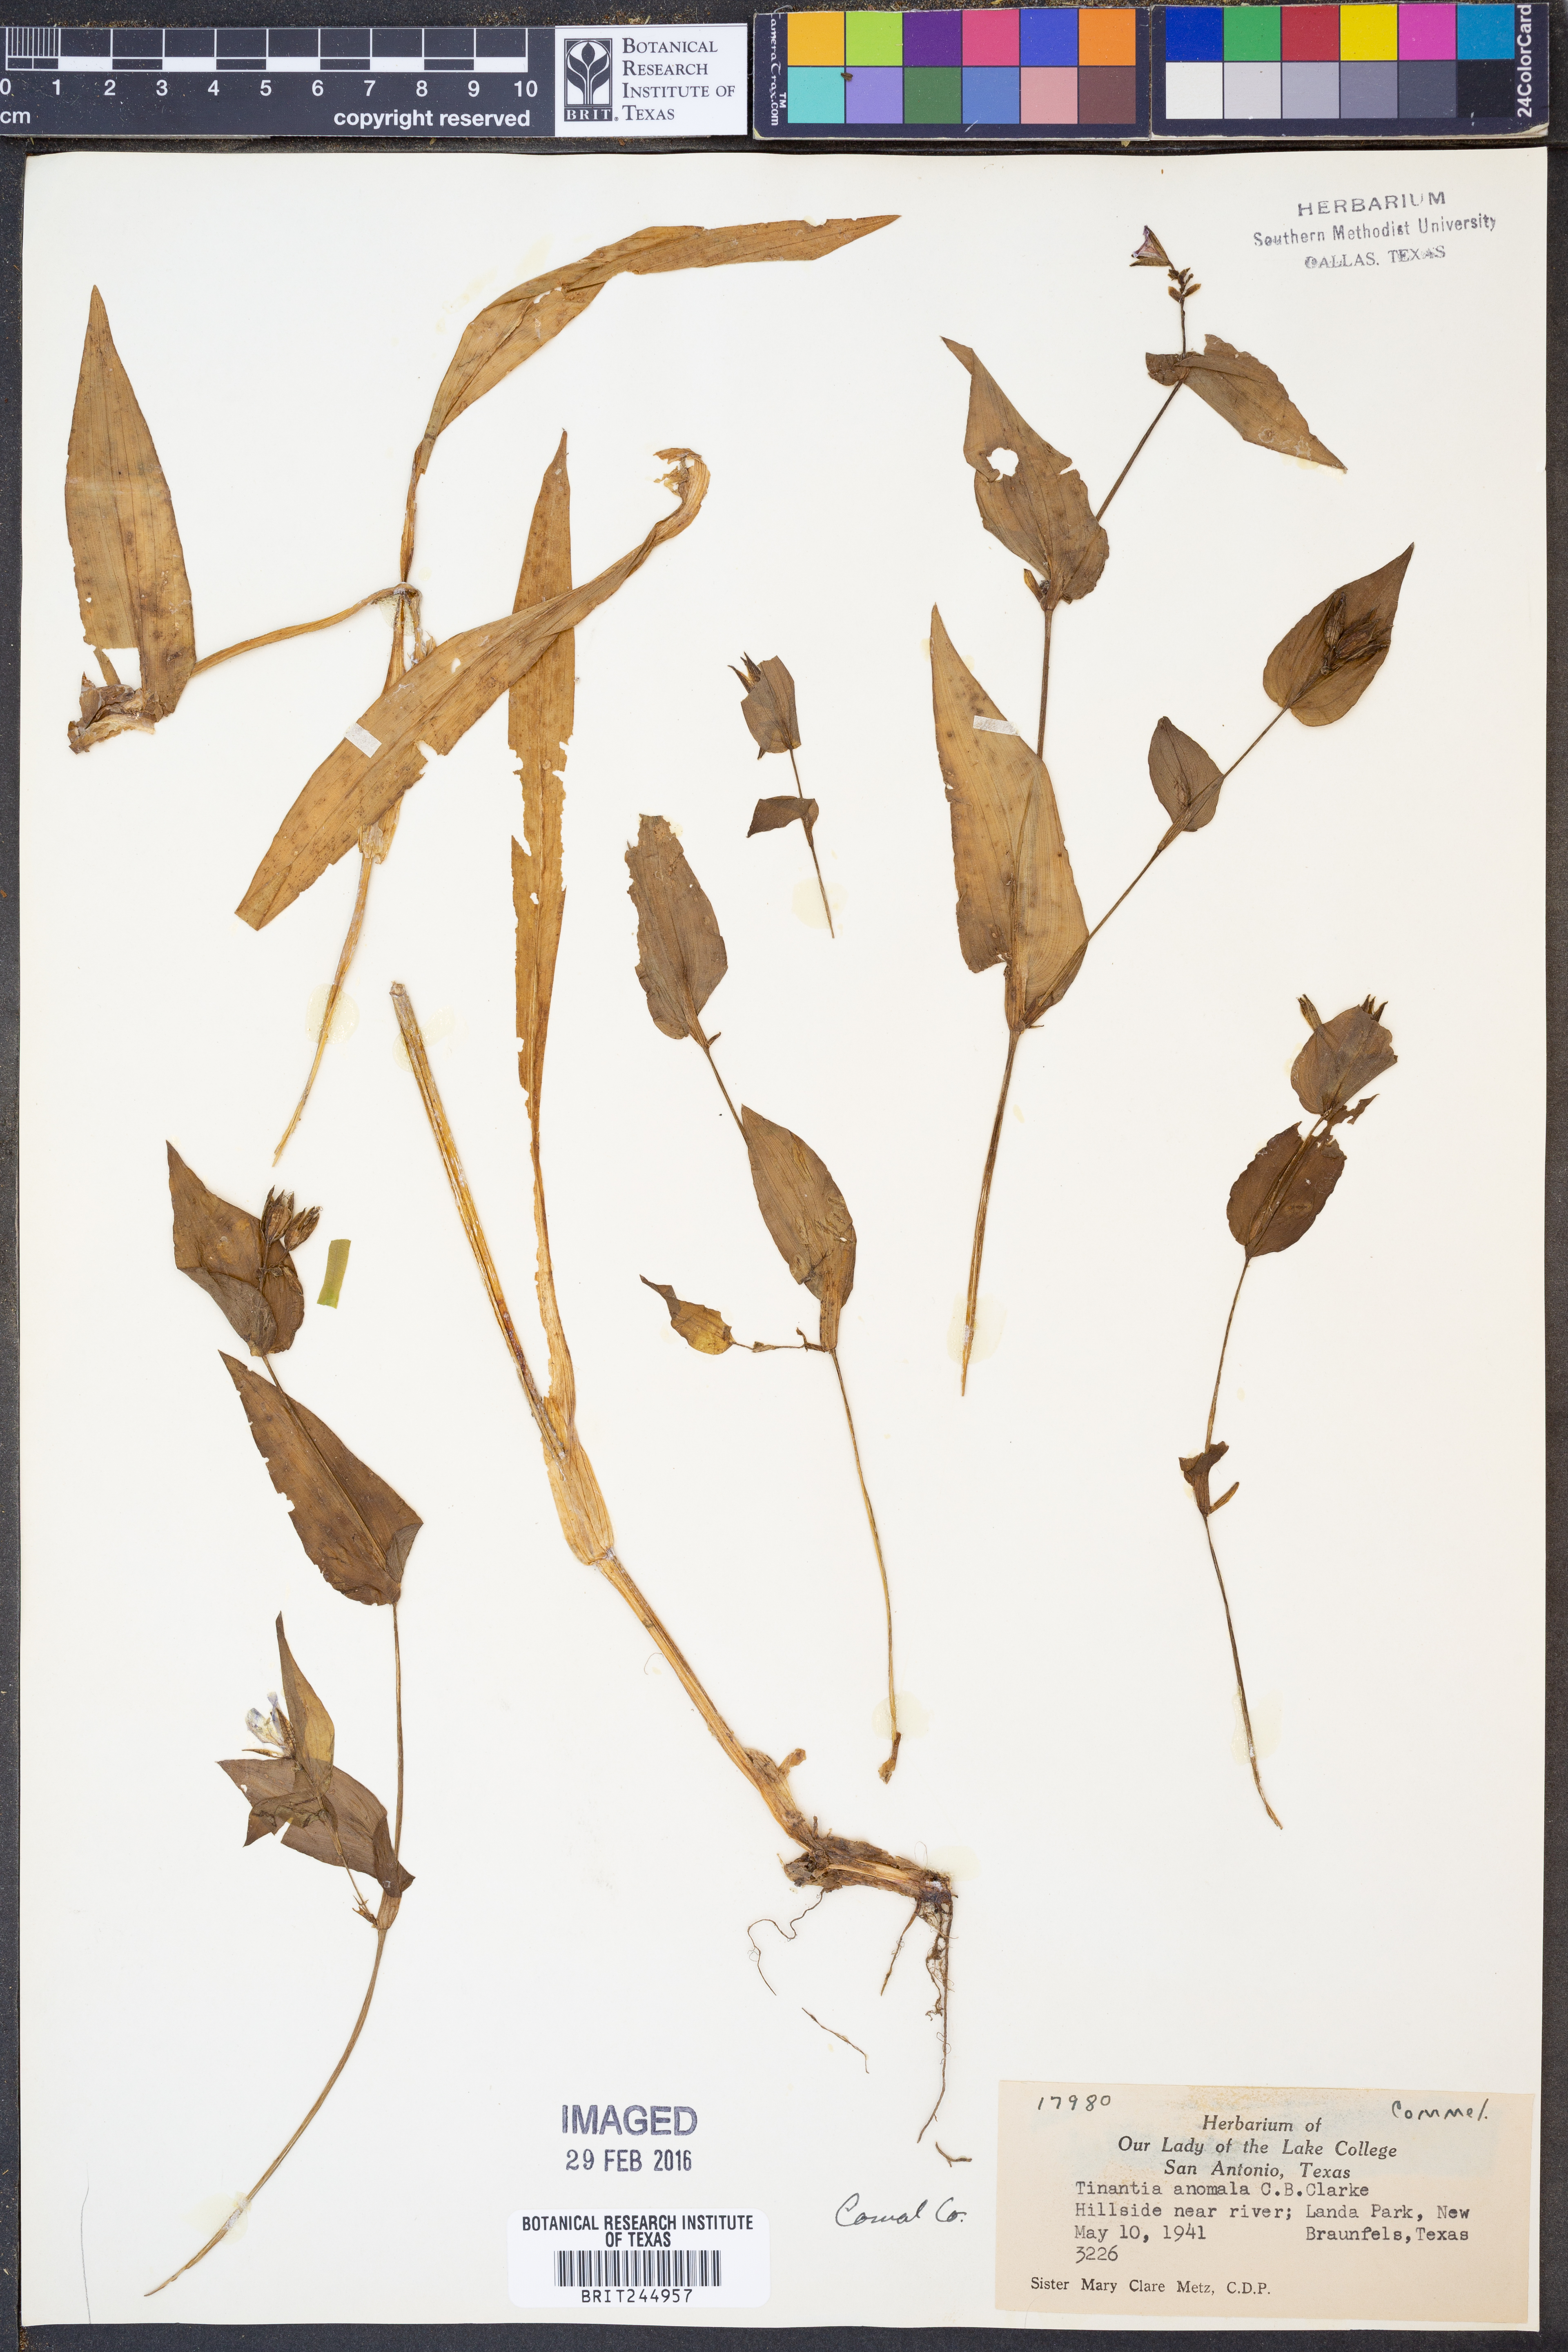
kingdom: Plantae
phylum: Tracheophyta
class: Liliopsida
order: Commelinales
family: Commelinaceae
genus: Tinantia
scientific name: Tinantia anomala
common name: False dayflower
